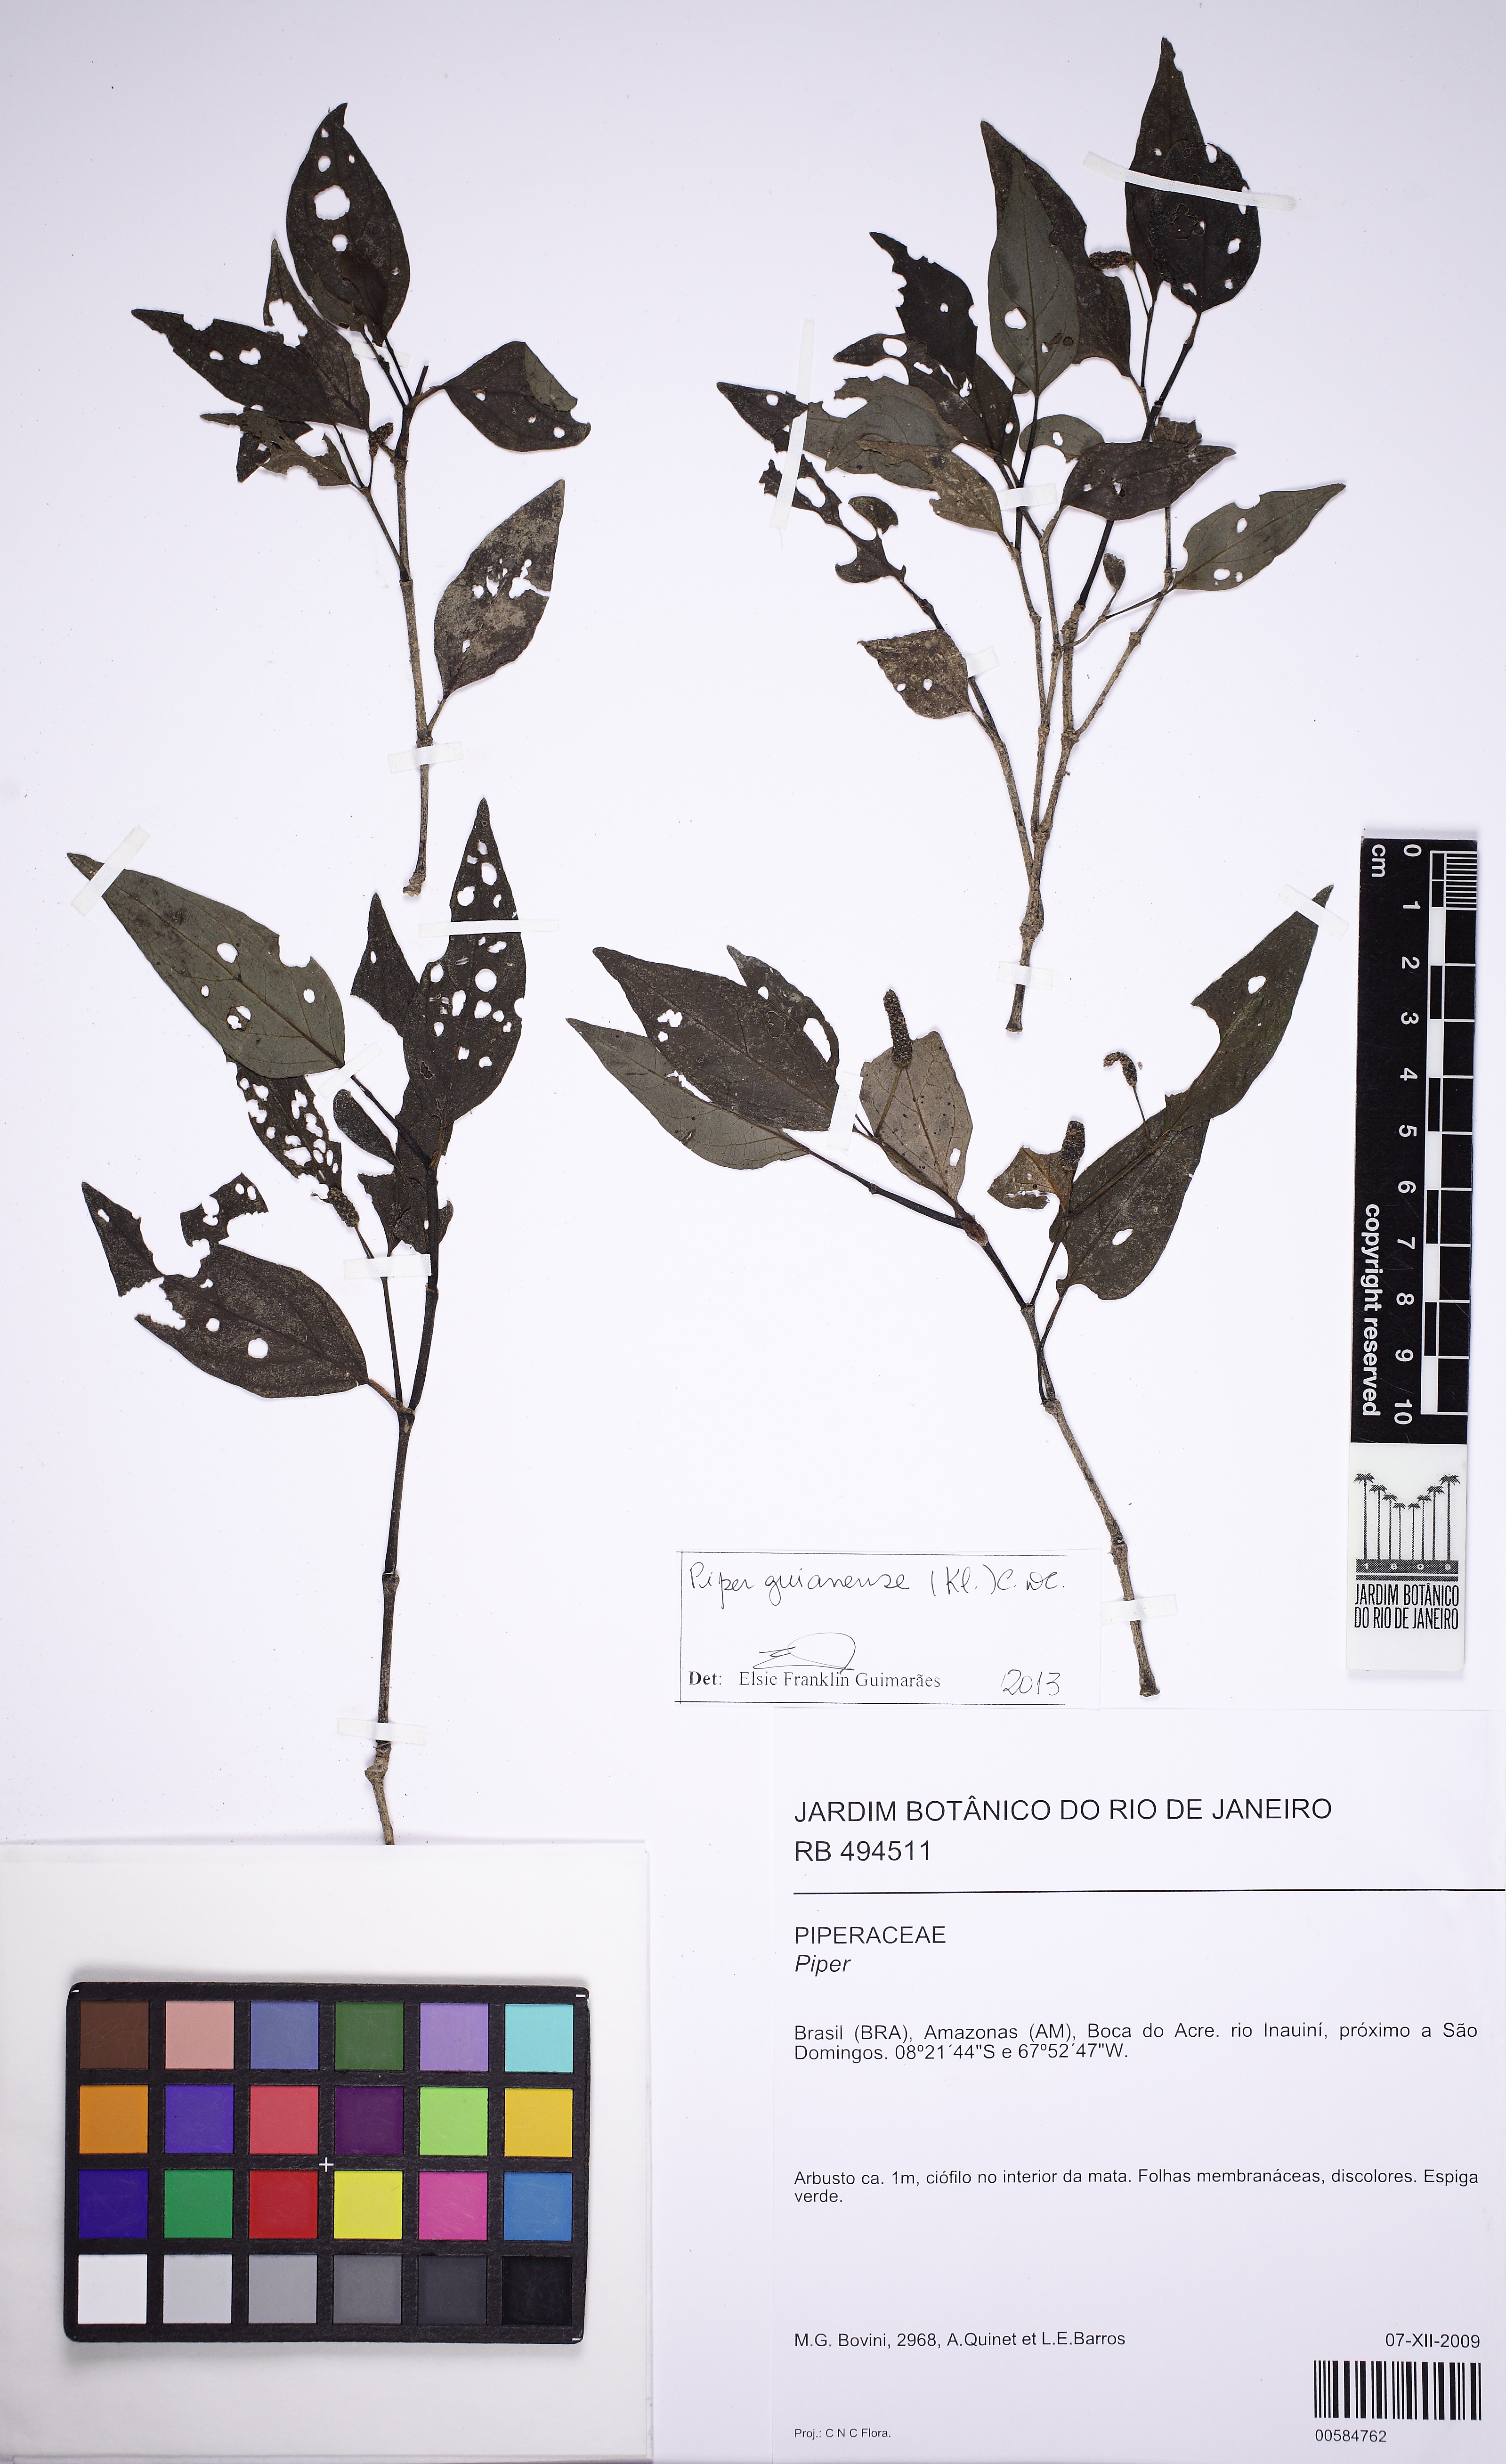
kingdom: Plantae
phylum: Tracheophyta
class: Magnoliopsida
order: Piperales
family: Piperaceae
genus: Piper
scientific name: Piper guianense
